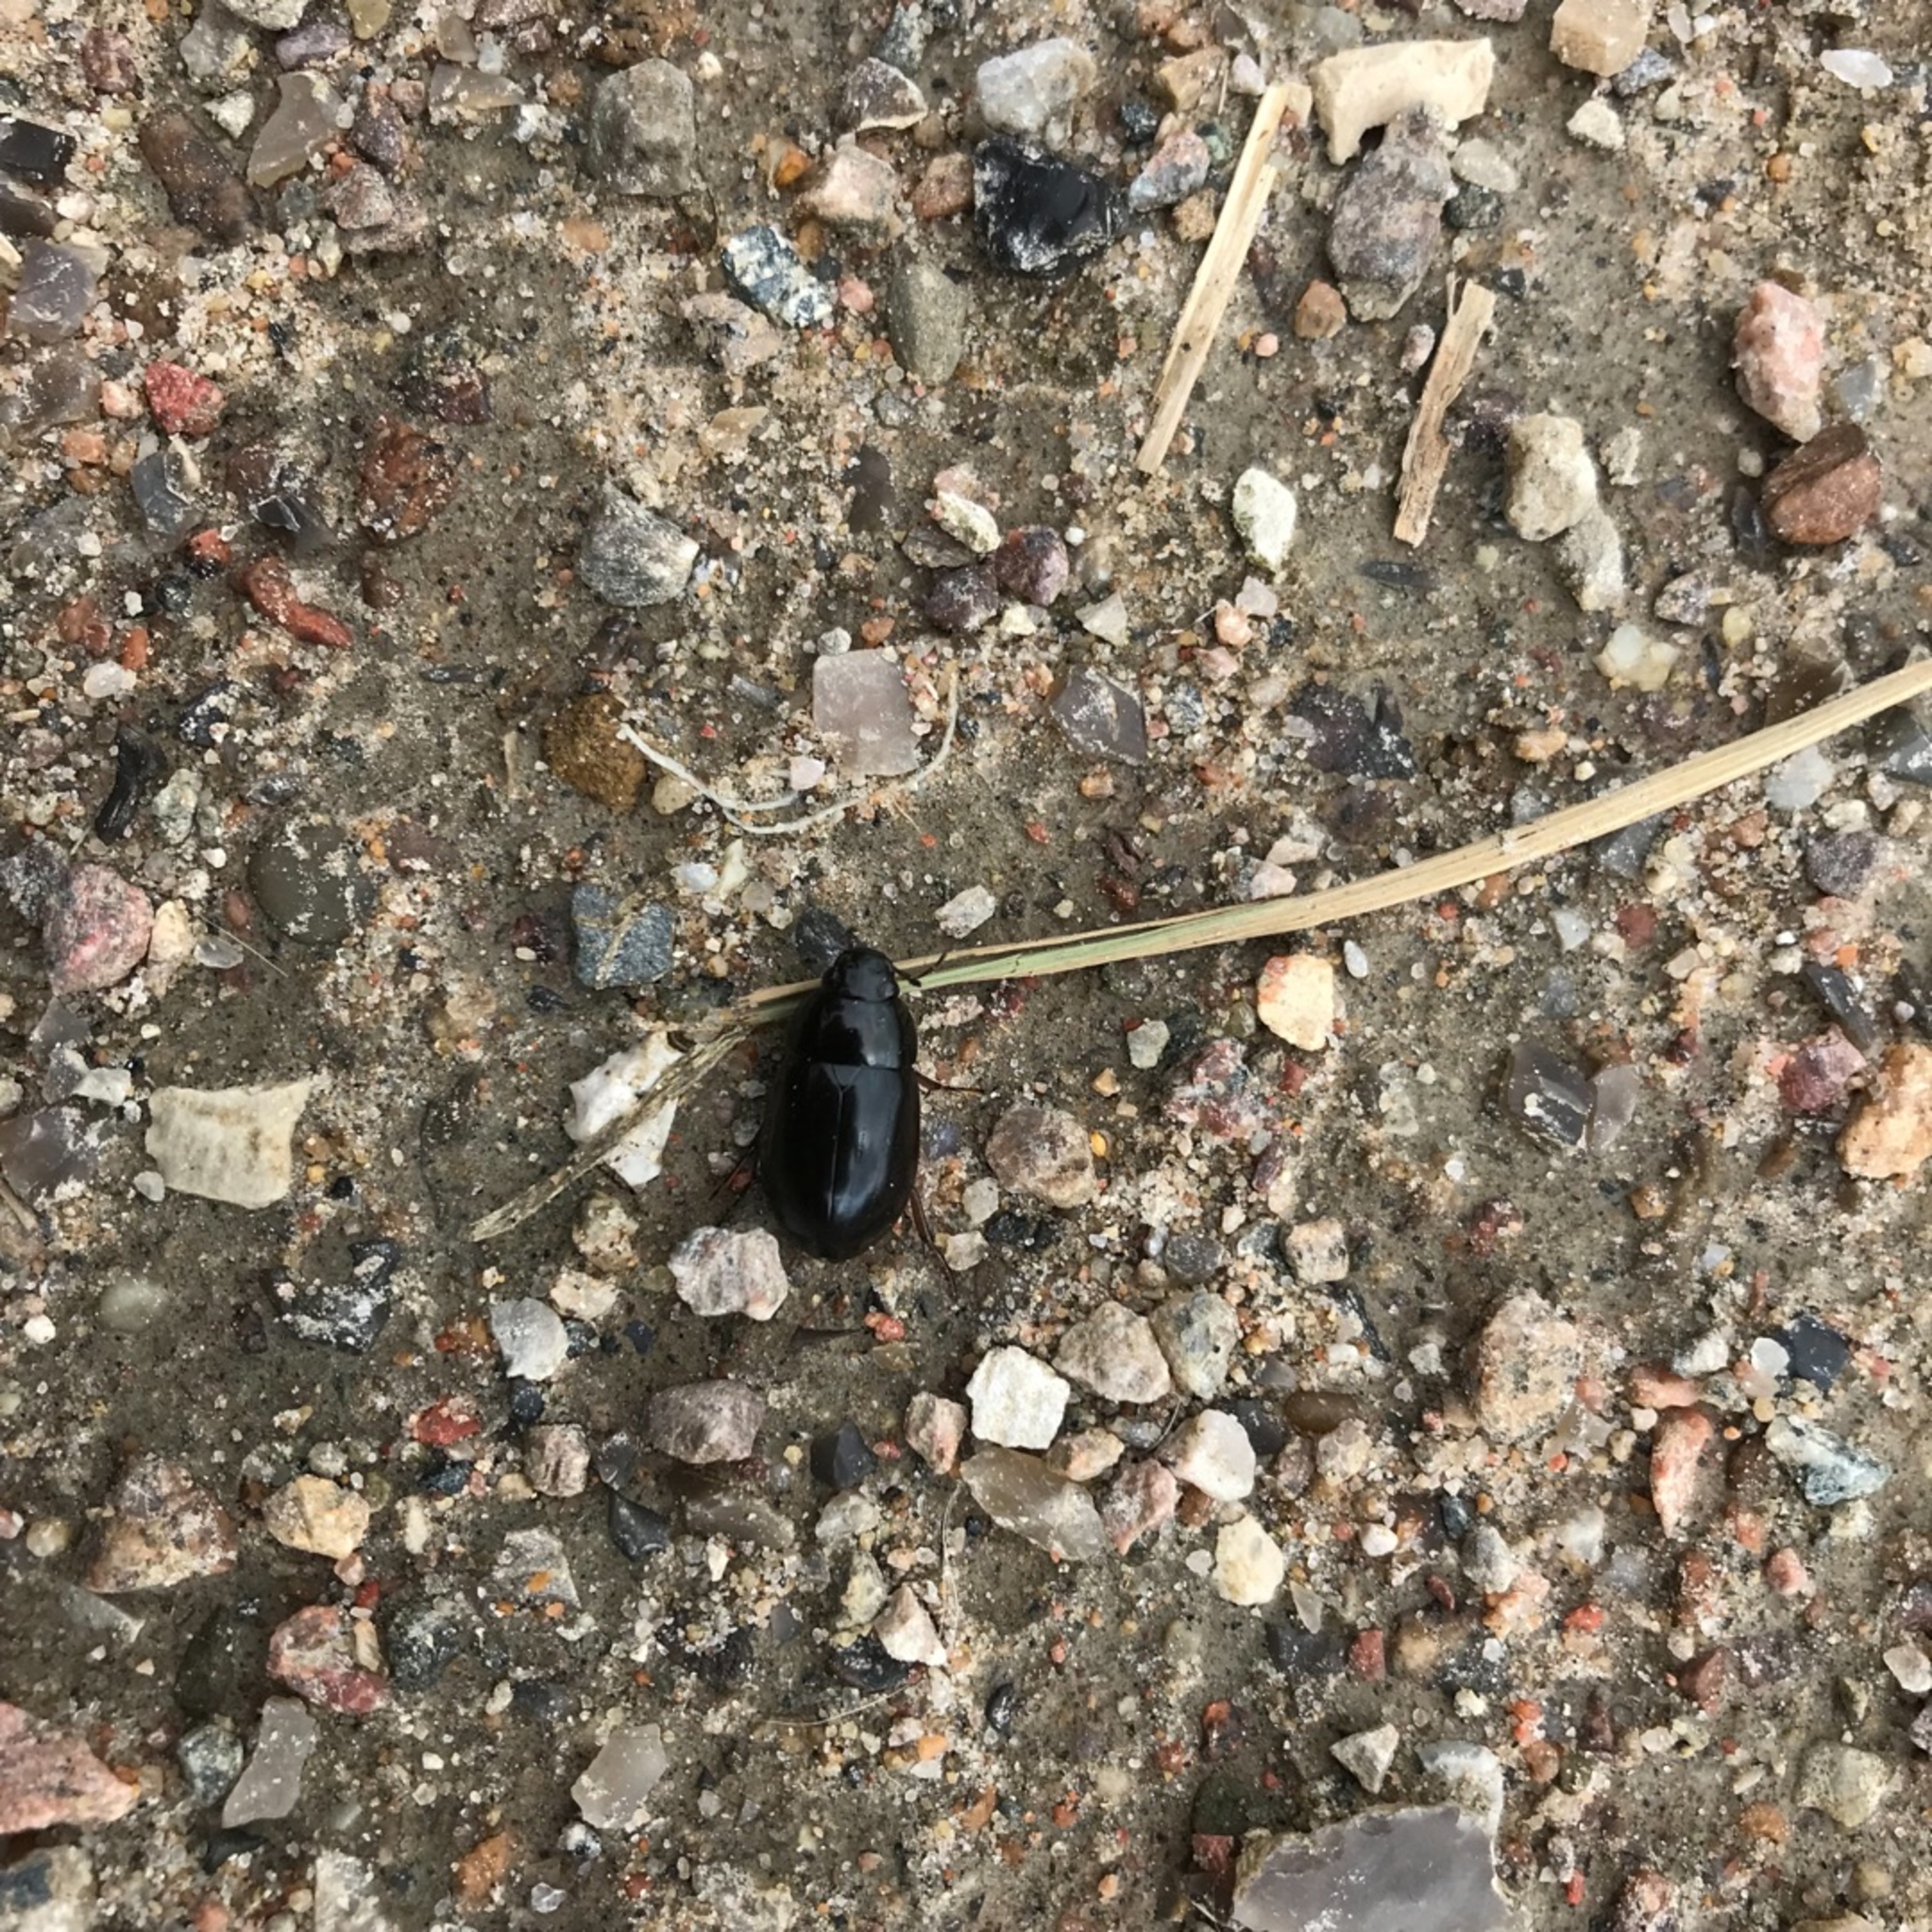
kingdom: Animalia
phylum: Arthropoda
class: Insecta
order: Coleoptera
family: Hydrophilidae
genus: Hydrochara
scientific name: Hydrochara caraboides
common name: Mellemstor vandkær
